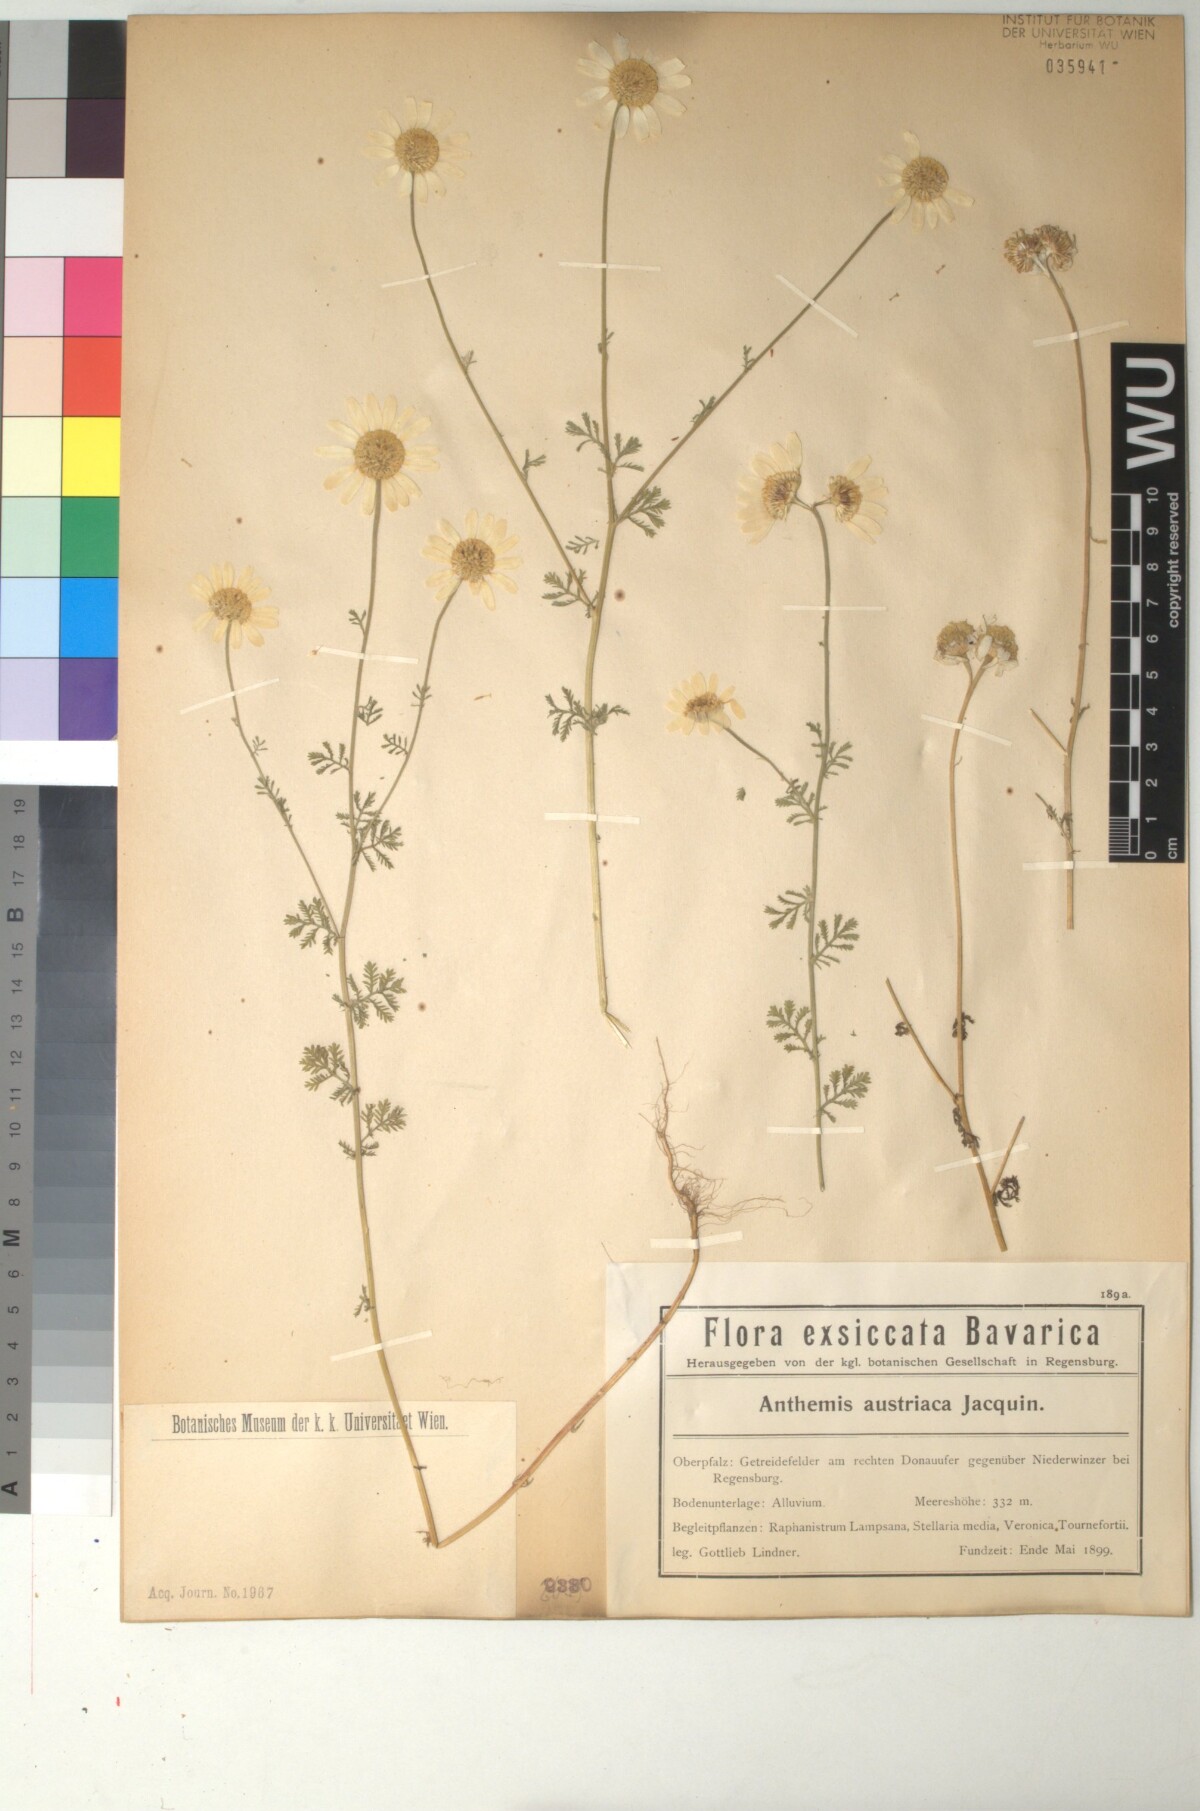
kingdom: Plantae
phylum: Tracheophyta
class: Magnoliopsida
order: Asterales
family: Asteraceae
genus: Cota
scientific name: Cota austriaca
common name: Austrian chamomile
